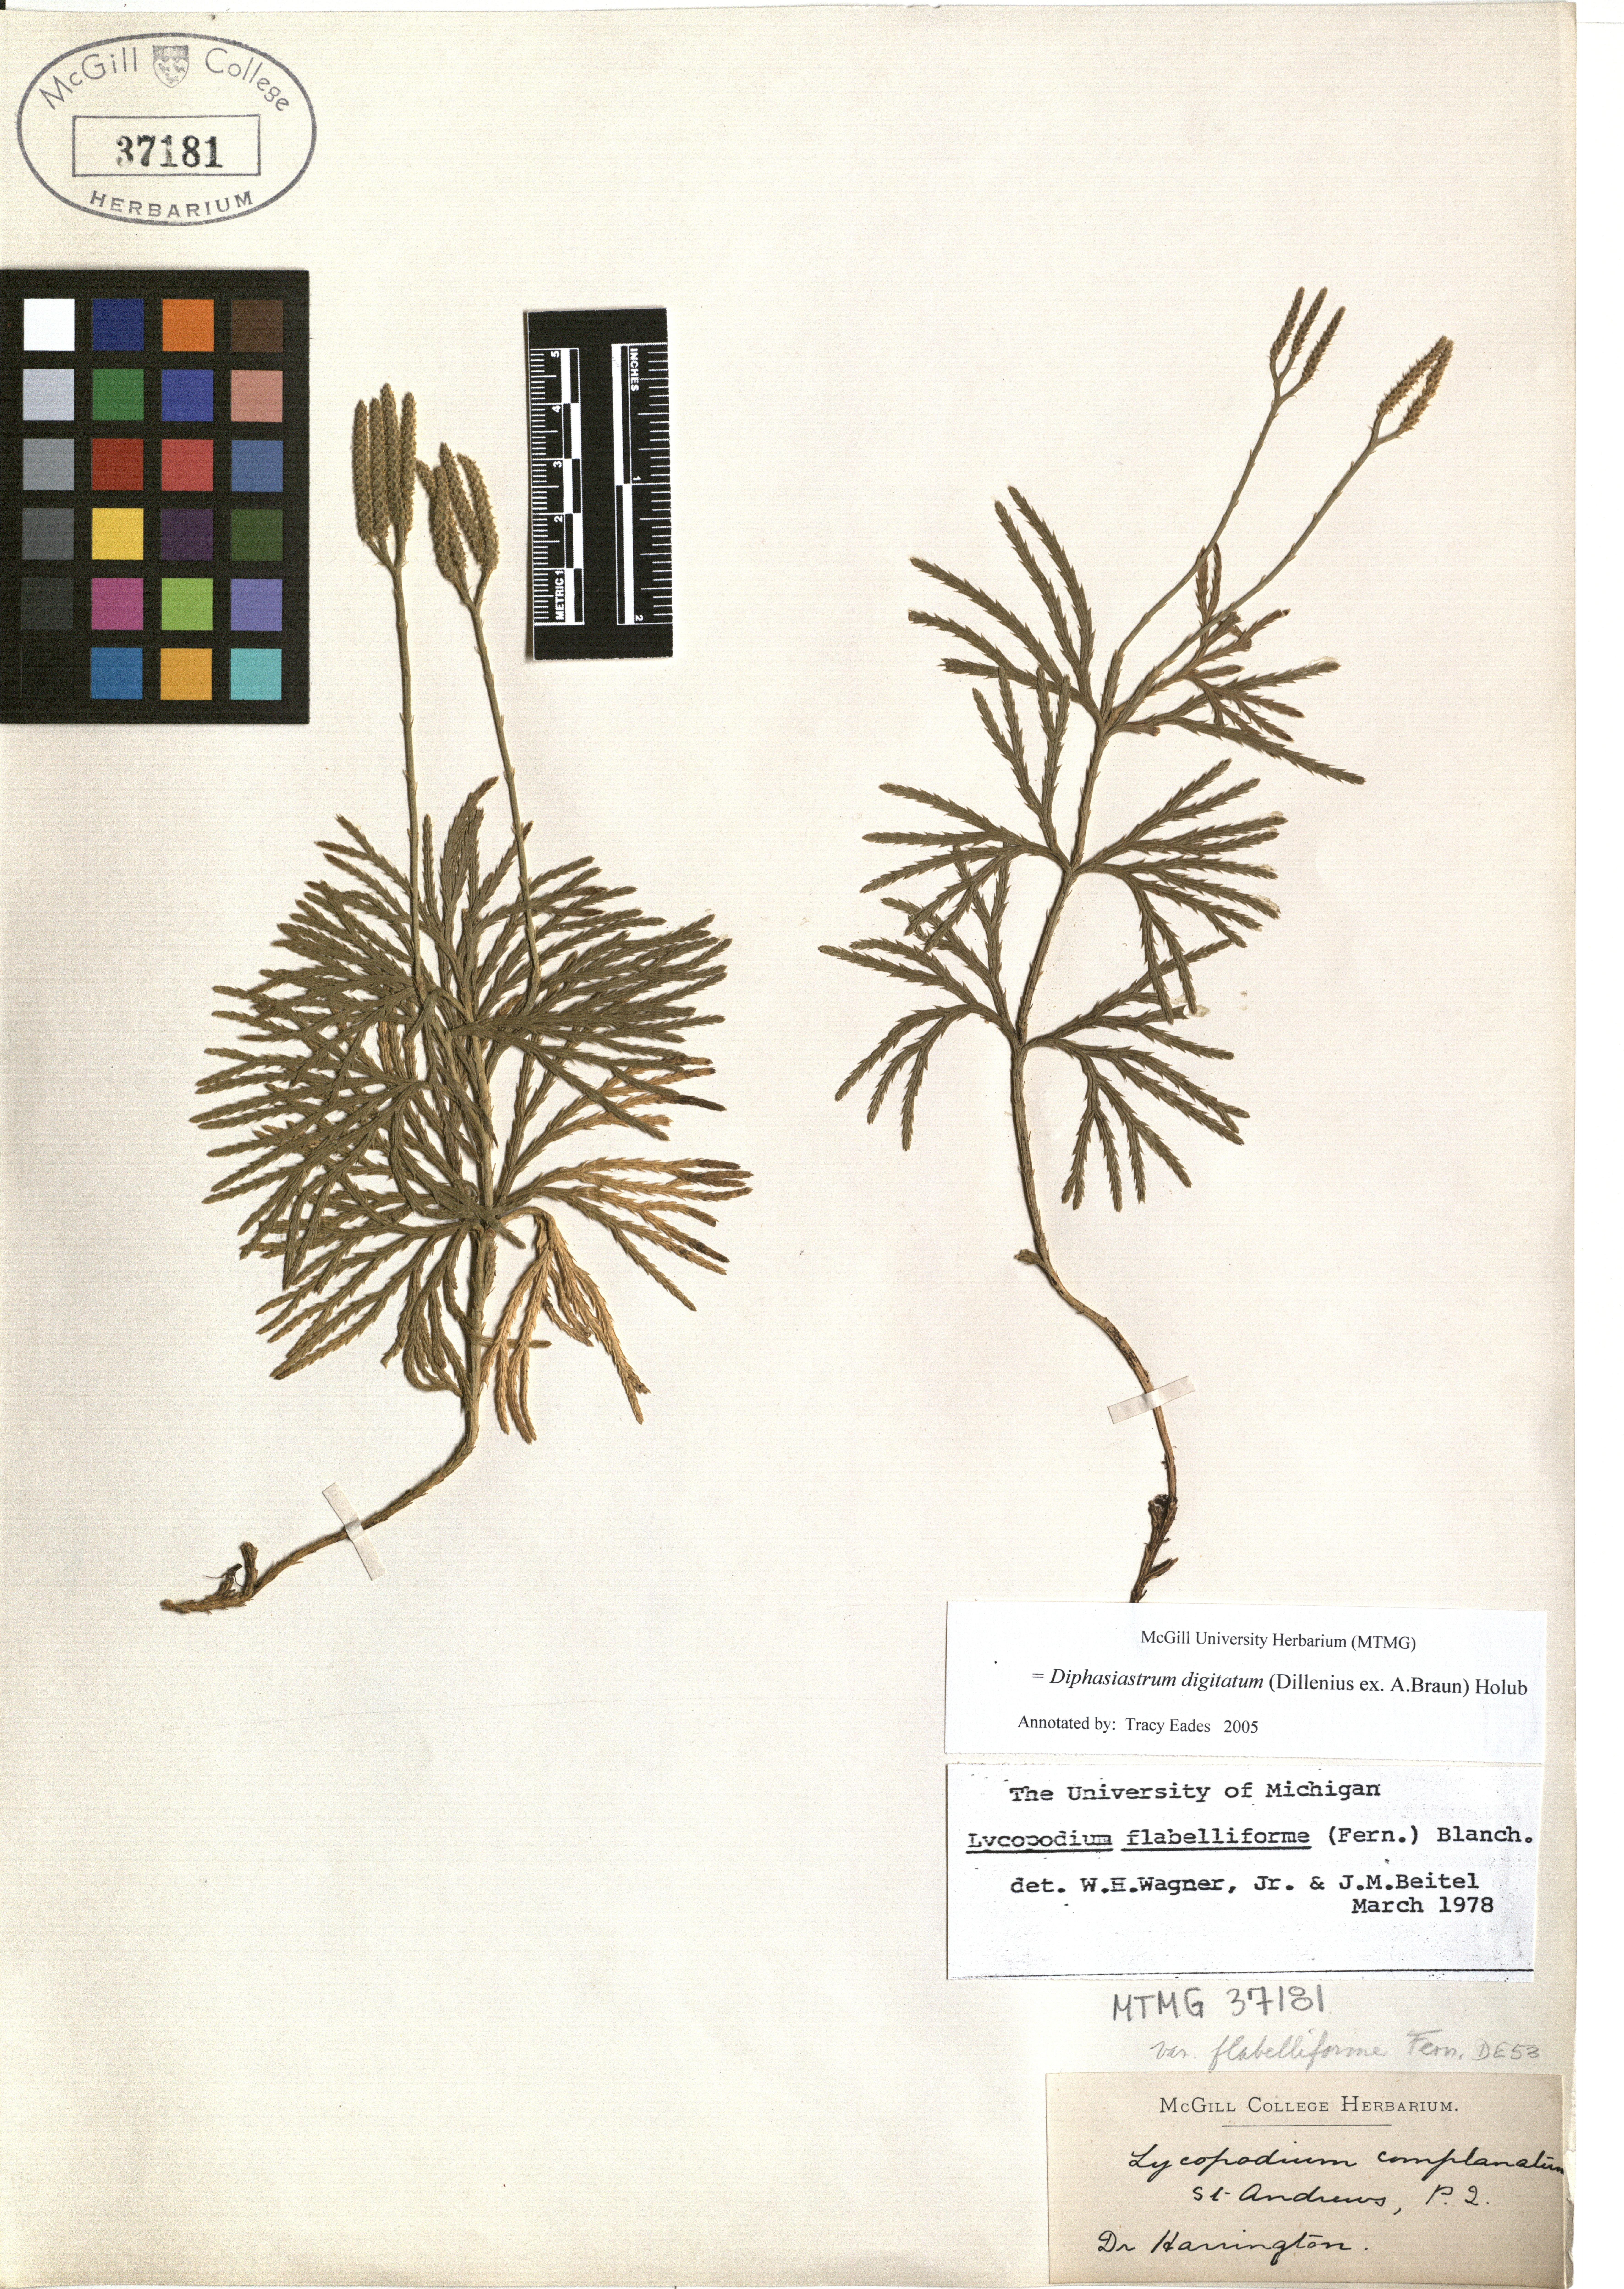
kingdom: Plantae
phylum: Tracheophyta
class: Lycopodiopsida
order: Lycopodiales
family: Lycopodiaceae
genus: Diphasiastrum
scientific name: Diphasiastrum digitatum
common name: Southern running-pine
